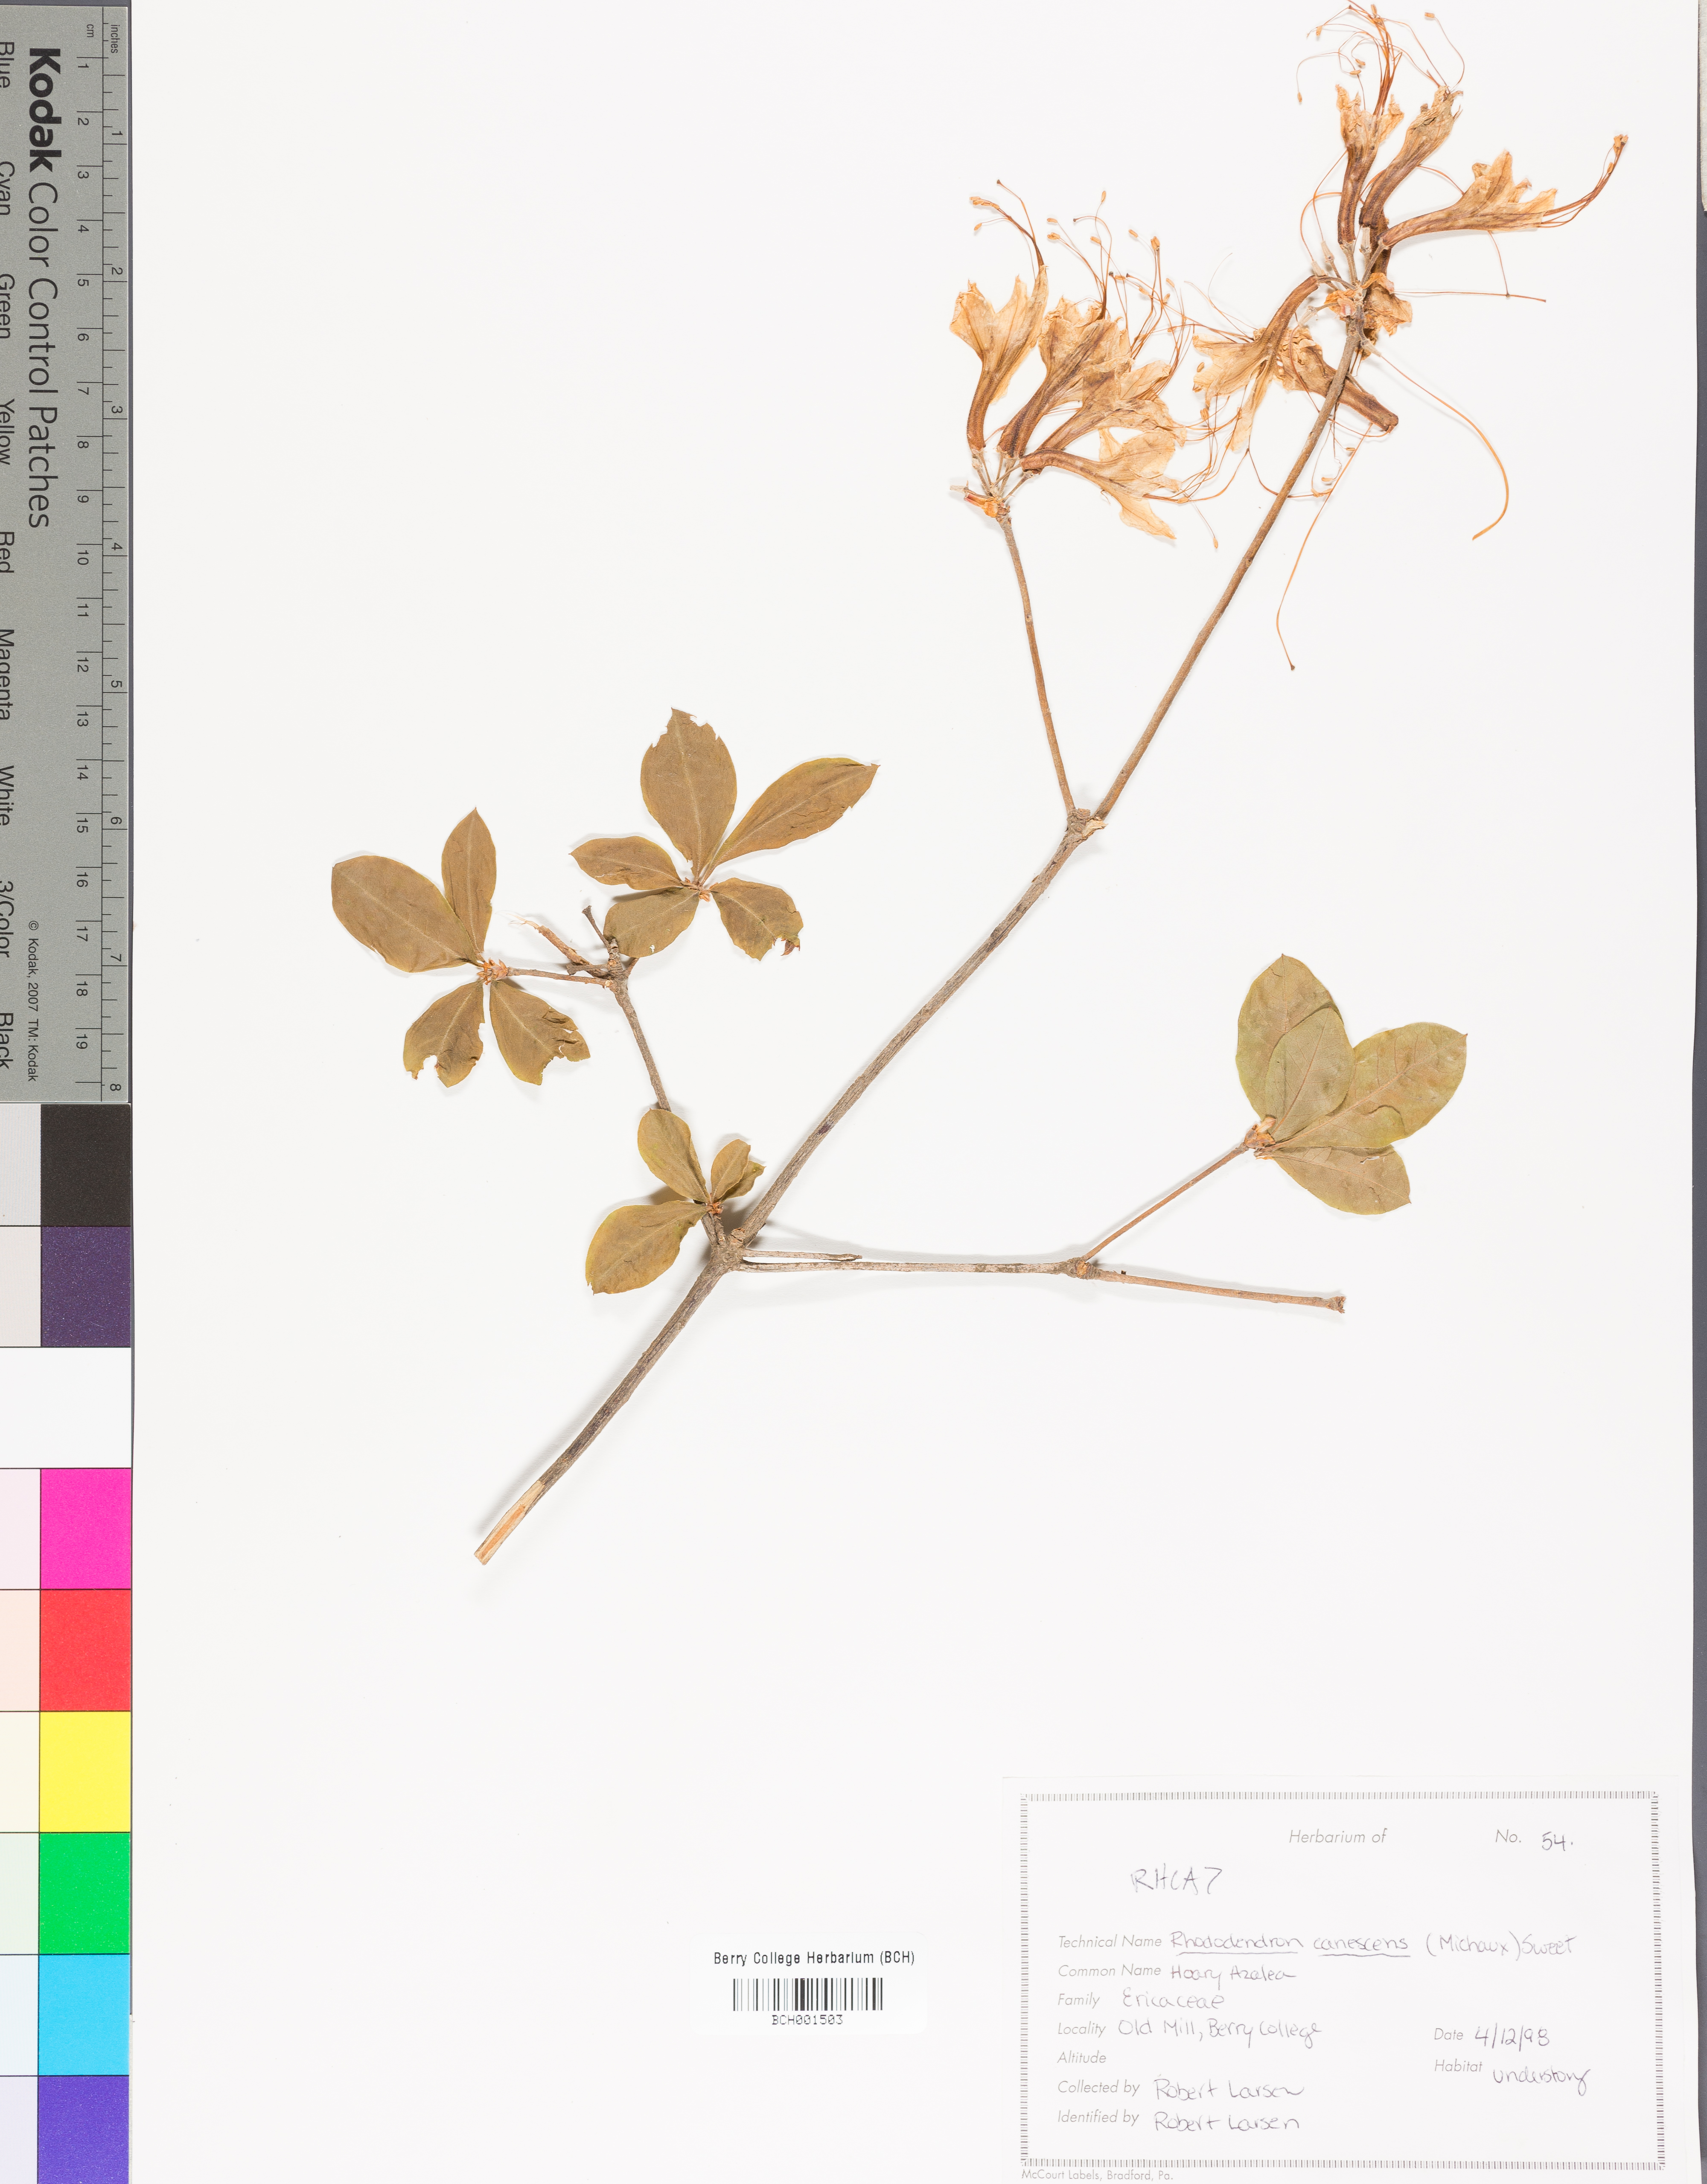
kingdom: Plantae
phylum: Tracheophyta
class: Magnoliopsida
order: Ericales
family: Ericaceae
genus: Oxydendrum
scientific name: Oxydendrum arboreum
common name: Sourwood
